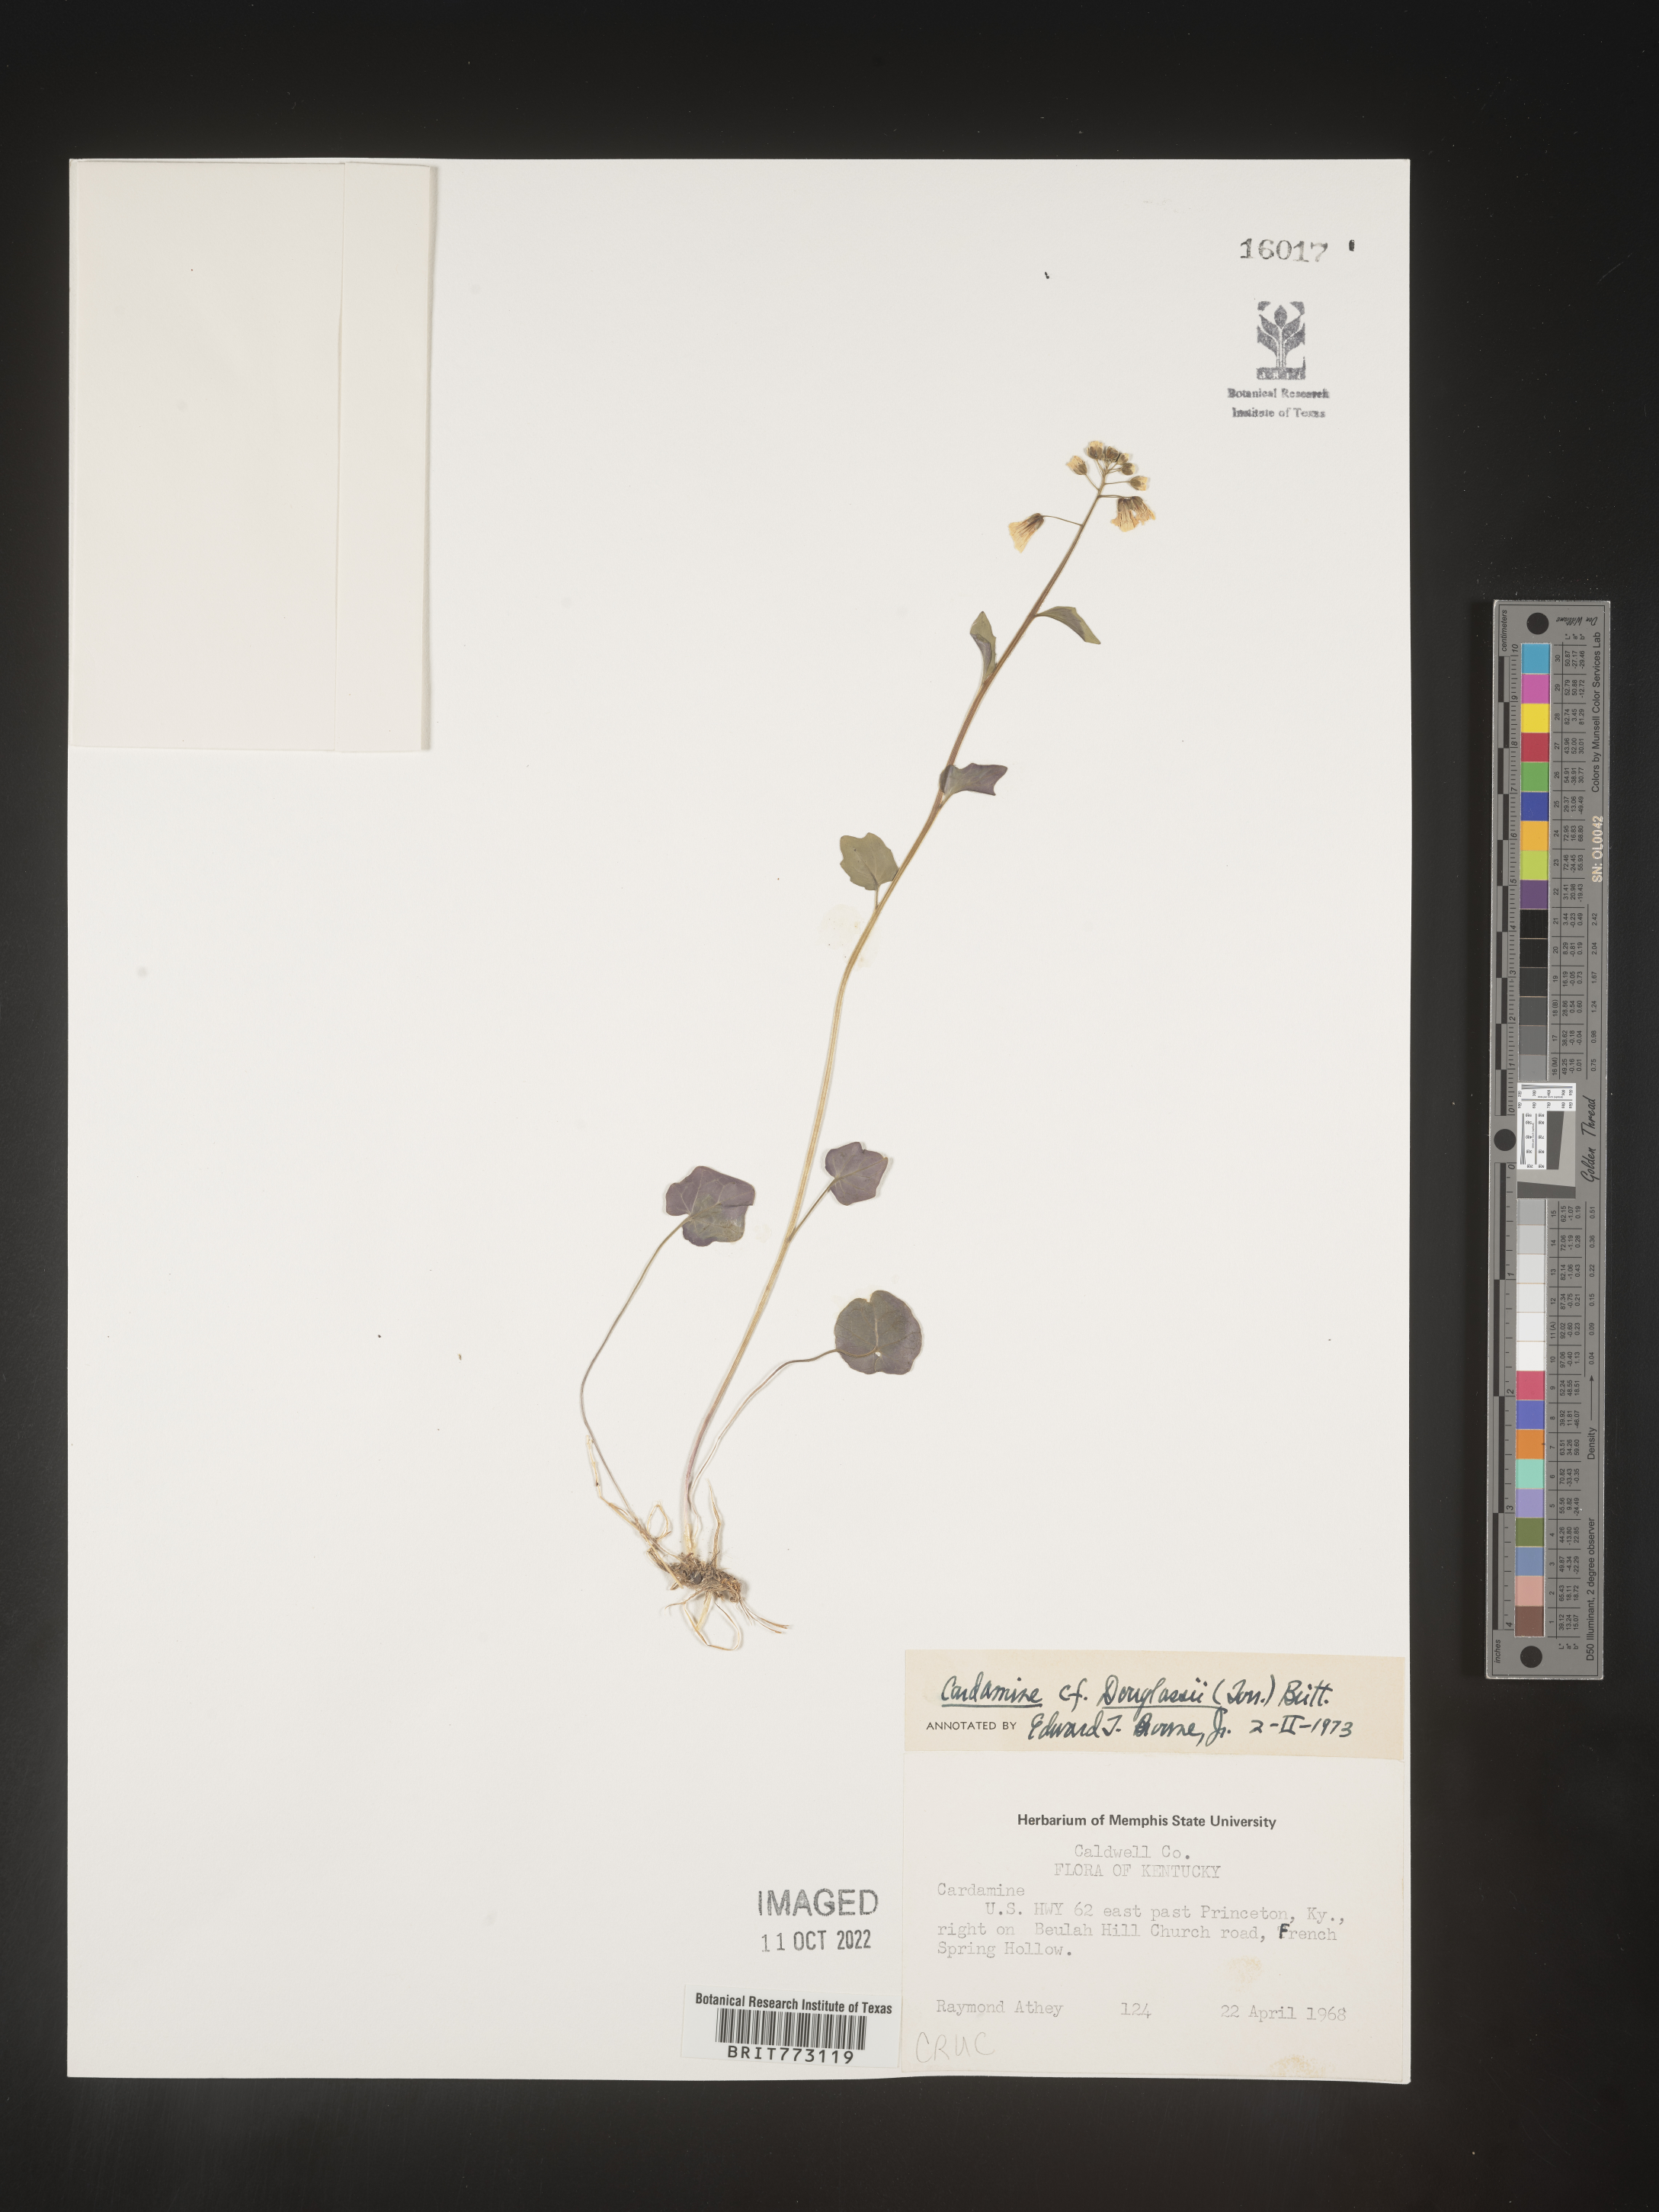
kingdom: Plantae
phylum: Tracheophyta
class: Magnoliopsida
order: Brassicales
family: Brassicaceae
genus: Cardamine
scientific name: Cardamine
